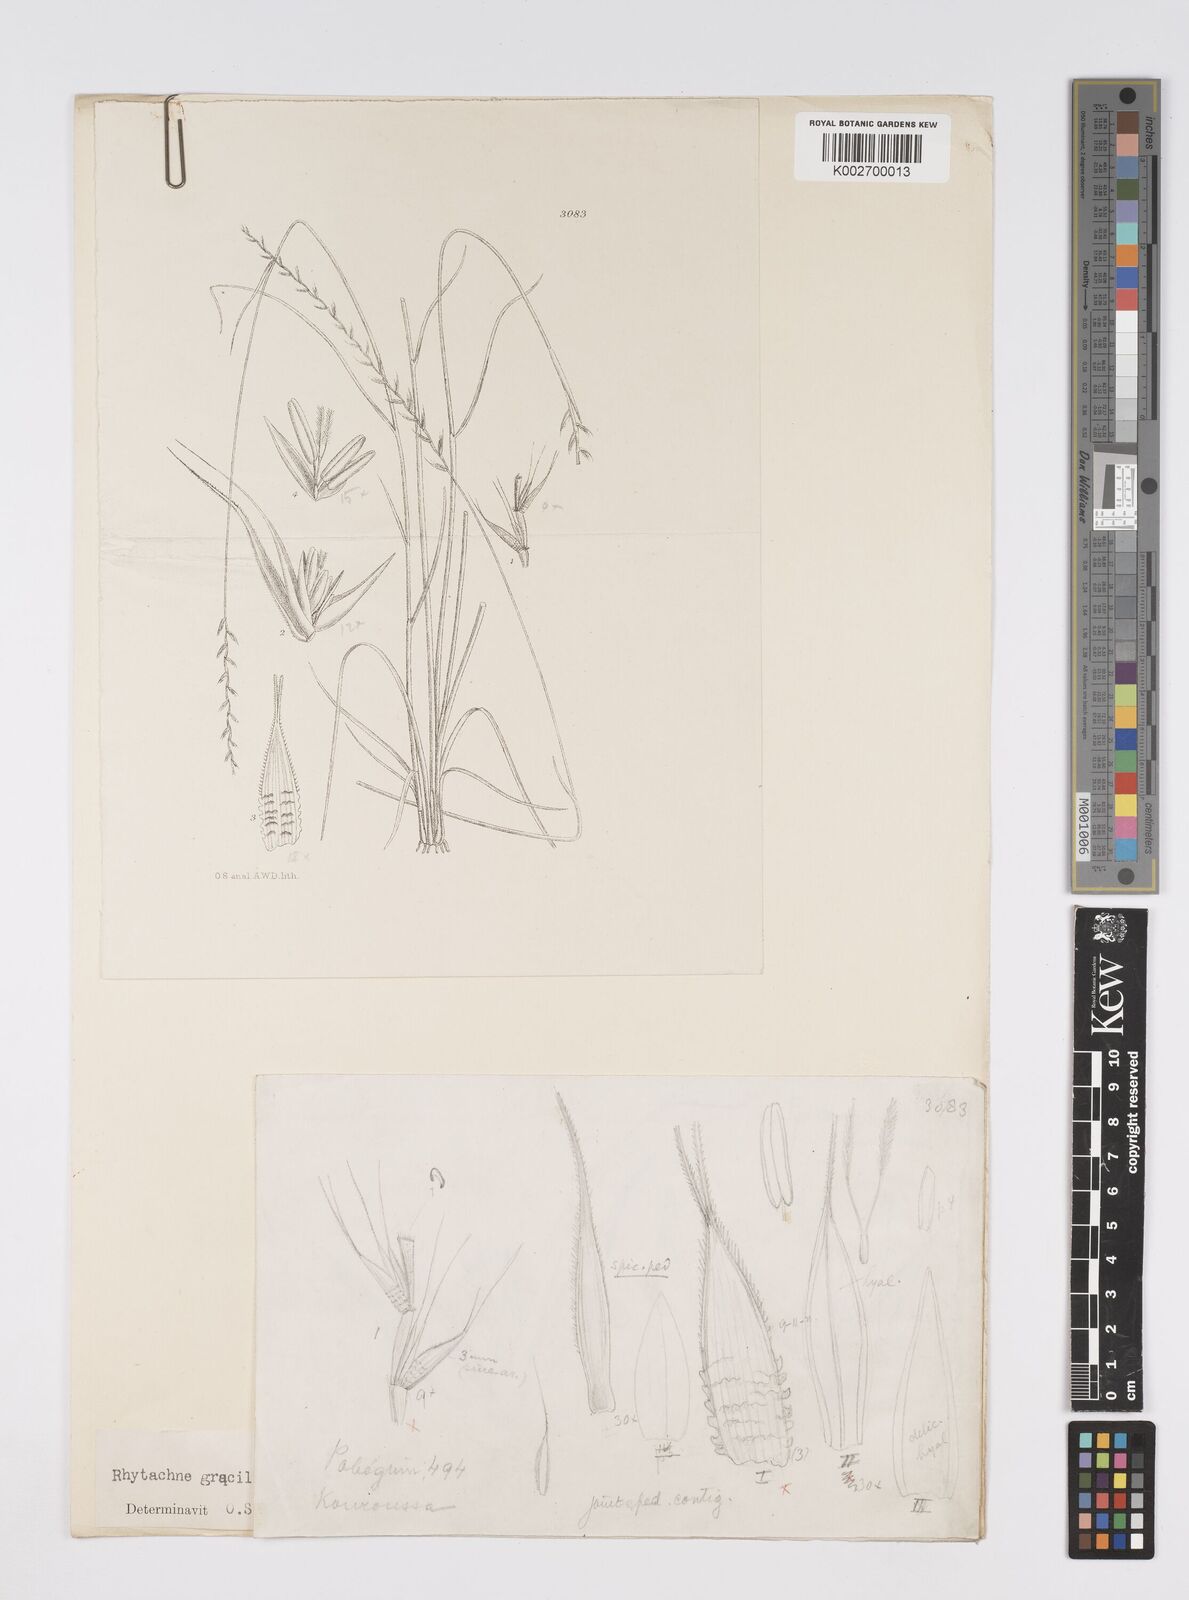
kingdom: Plantae
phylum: Tracheophyta
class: Liliopsida
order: Poales
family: Poaceae
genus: Rhytachne
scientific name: Rhytachne gracilis
